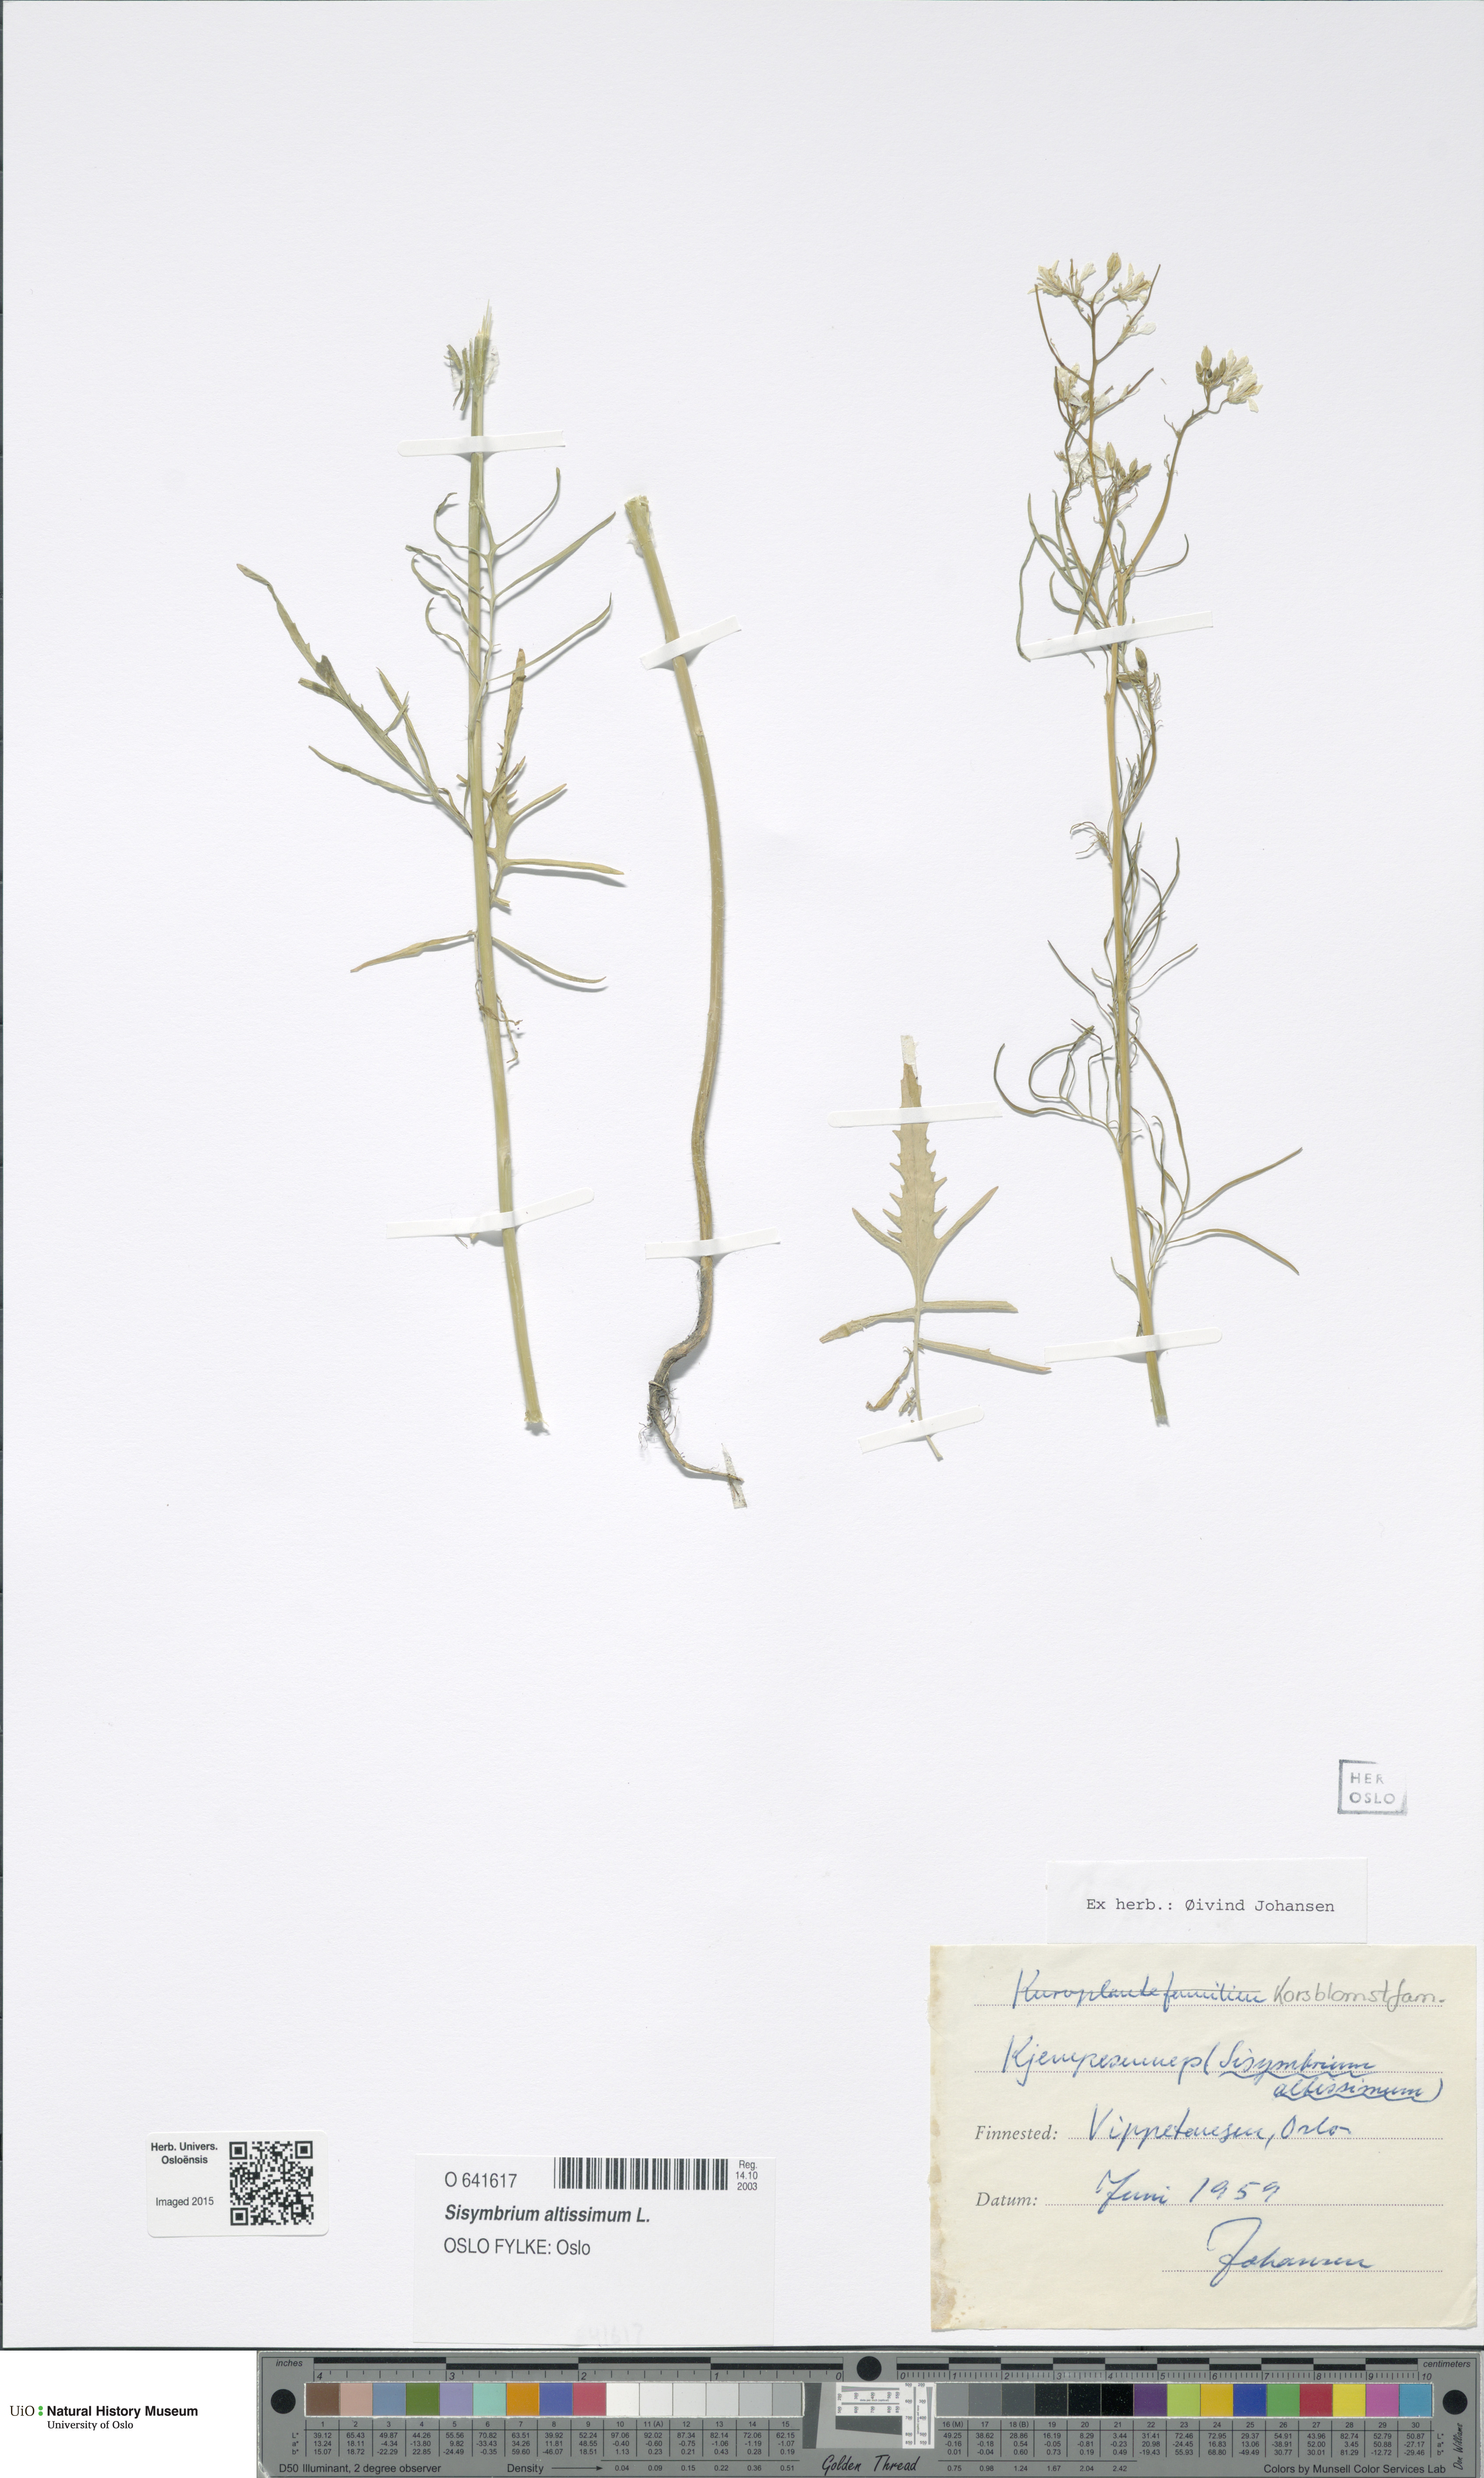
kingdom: Plantae
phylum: Tracheophyta
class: Magnoliopsida
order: Brassicales
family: Brassicaceae
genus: Sisymbrium
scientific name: Sisymbrium altissimum
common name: Tall rocket
